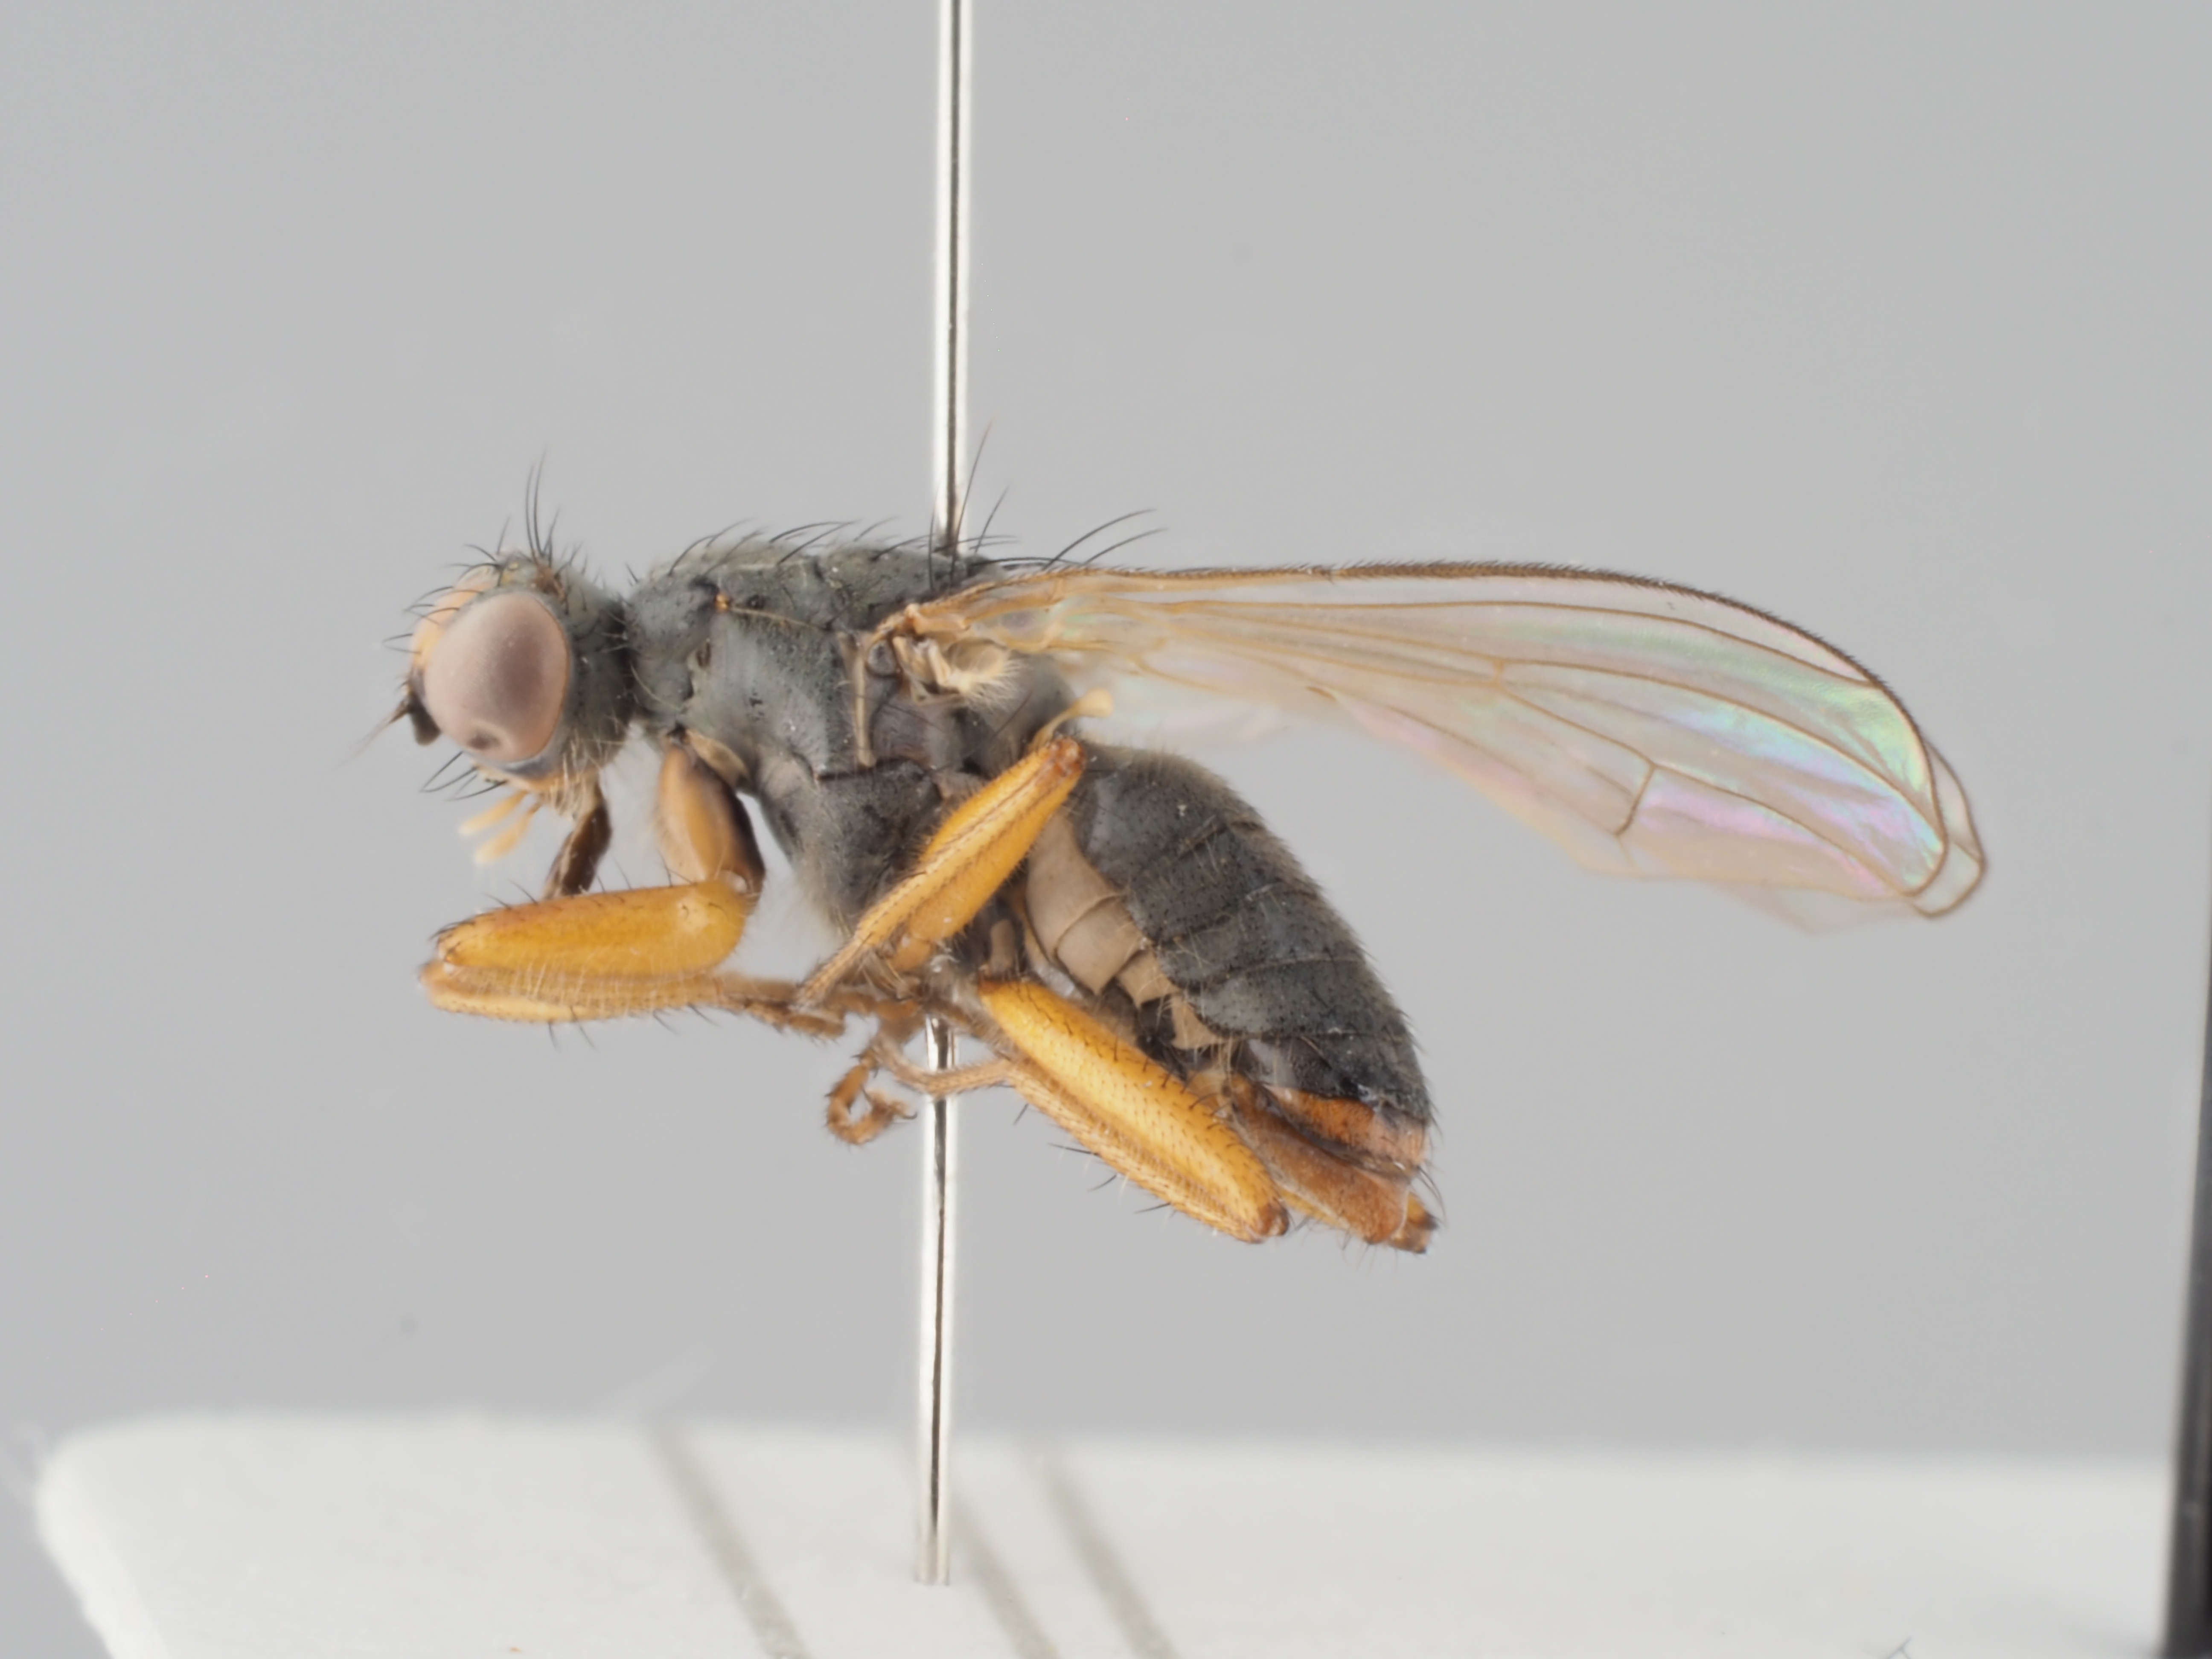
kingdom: Animalia
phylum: Arthropoda
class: Insecta
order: Diptera
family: Scathophagidae
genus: Microprosopa
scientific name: Microprosopa haemorrhoidalis
